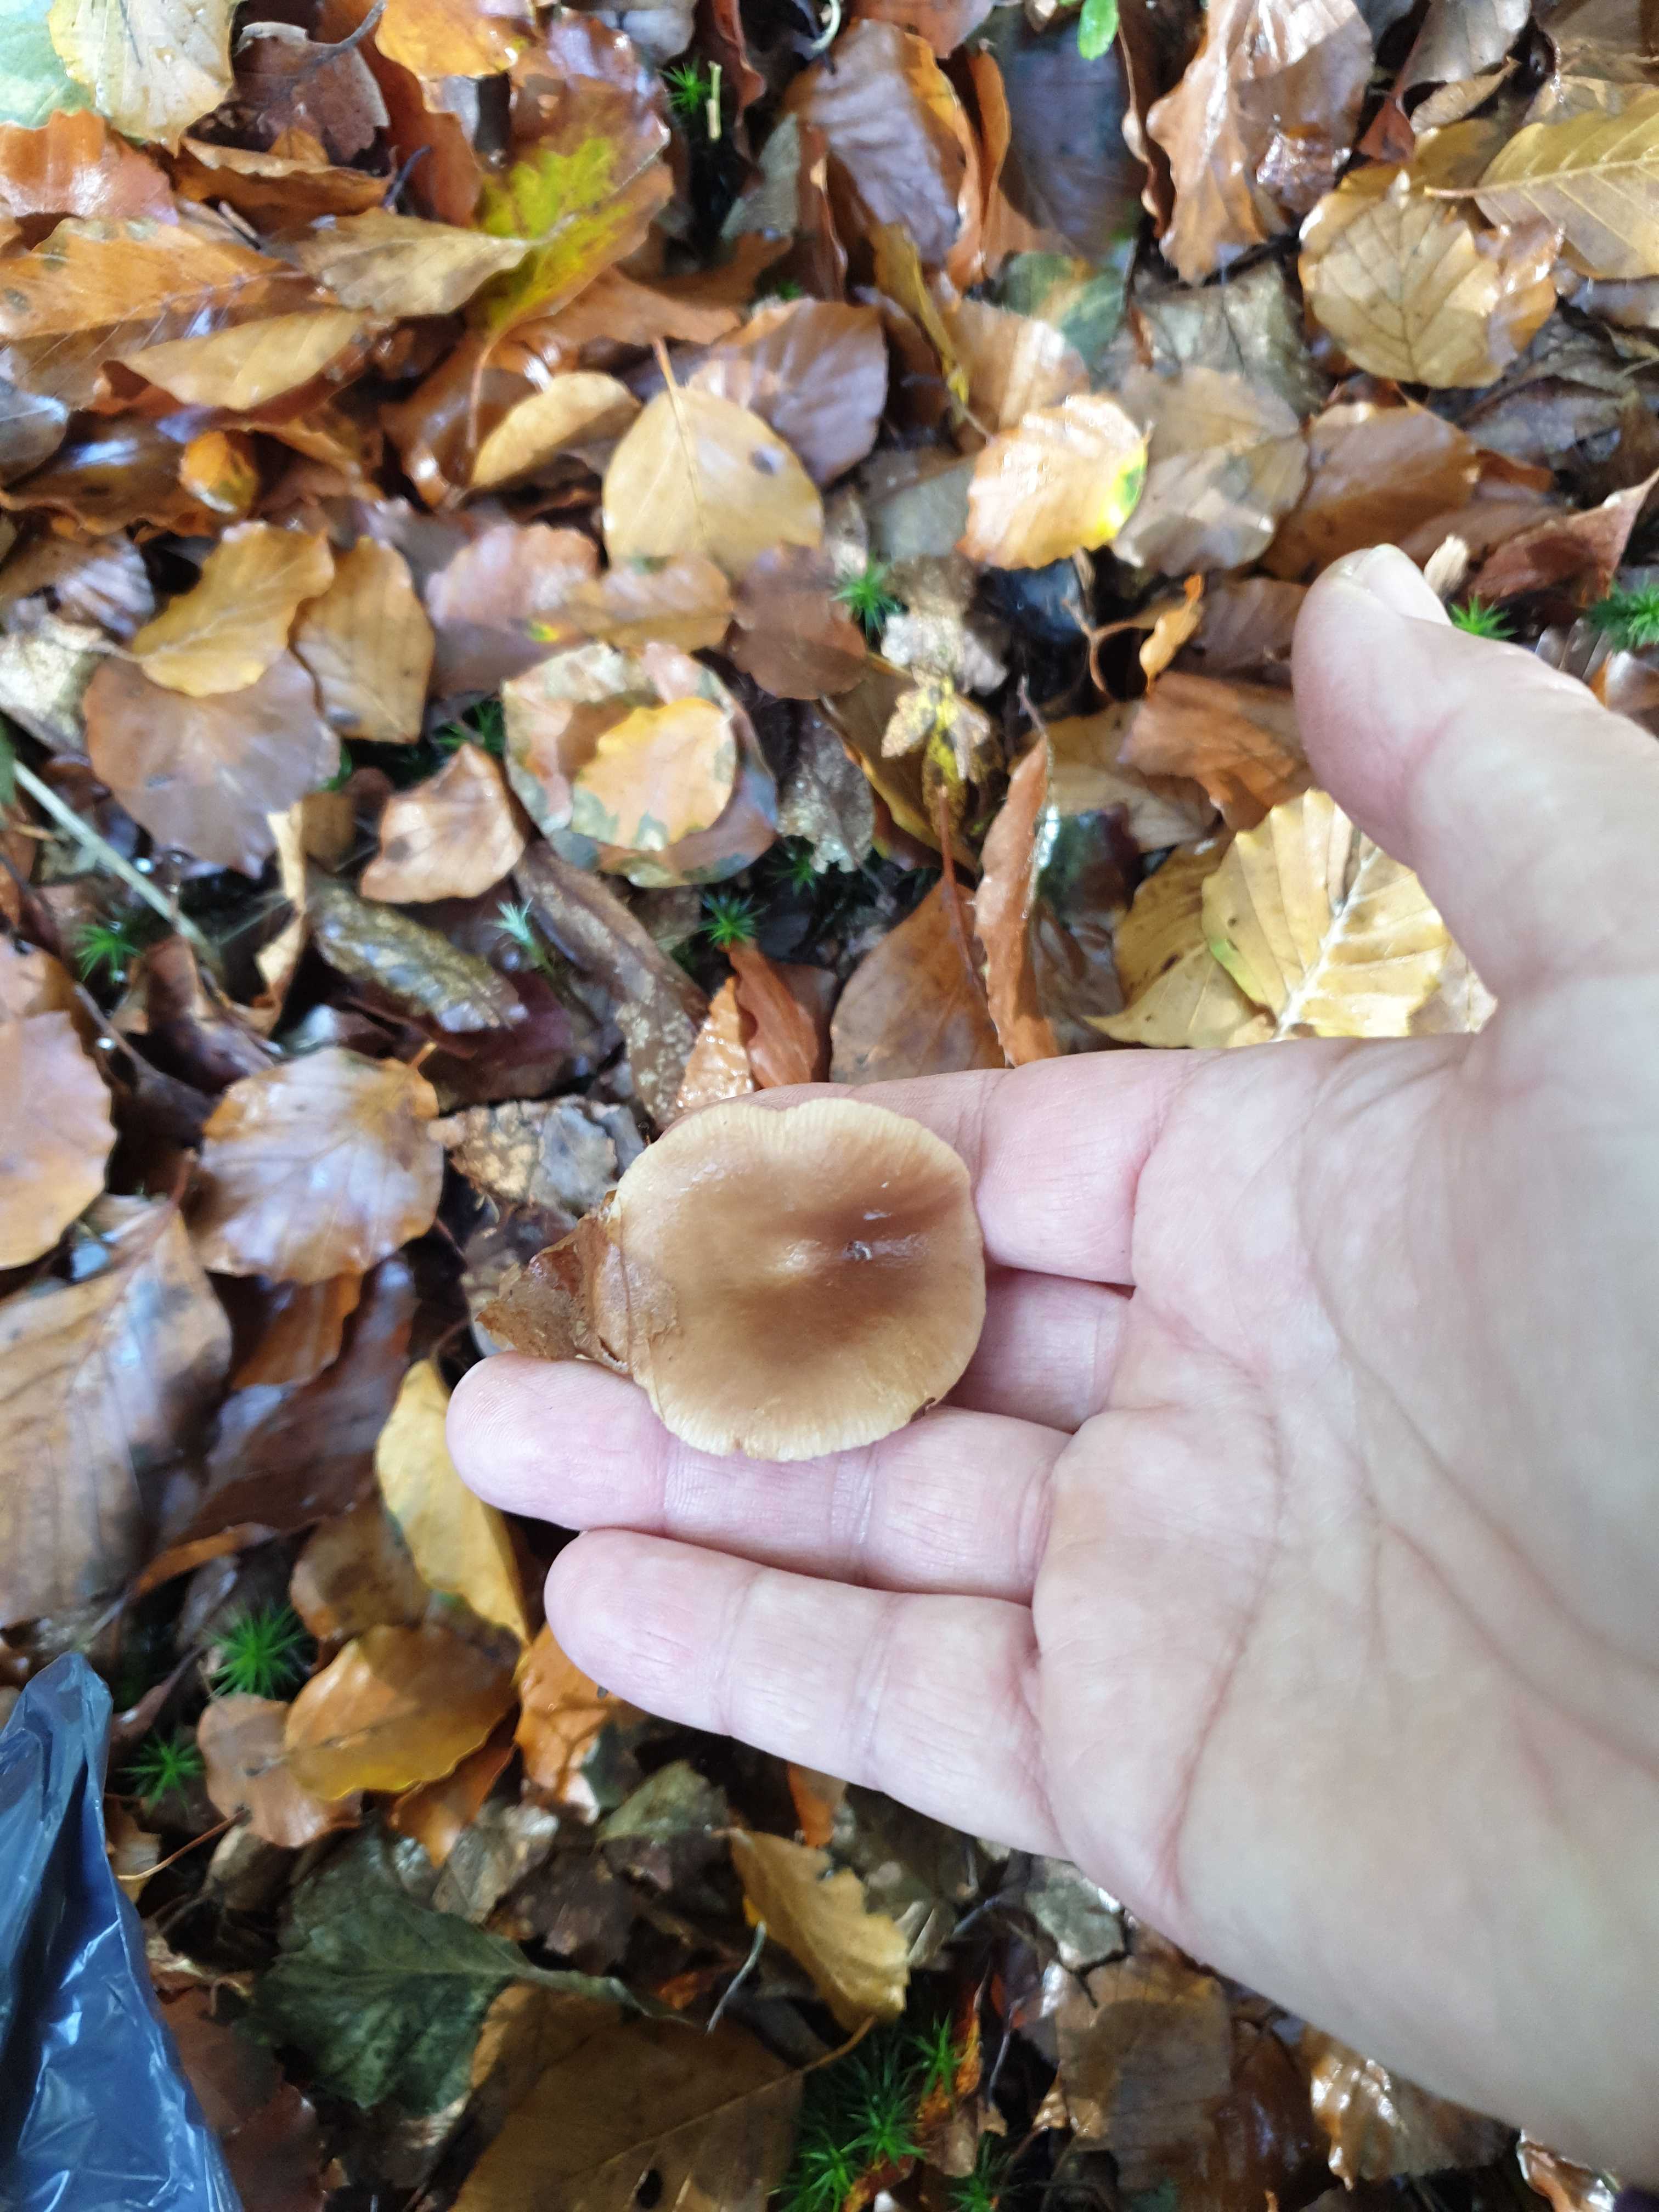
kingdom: Fungi
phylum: Basidiomycota
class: Agaricomycetes
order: Russulales
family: Russulaceae
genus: Lactarius
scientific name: Lactarius subdulcis
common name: sødlig mælkehat
